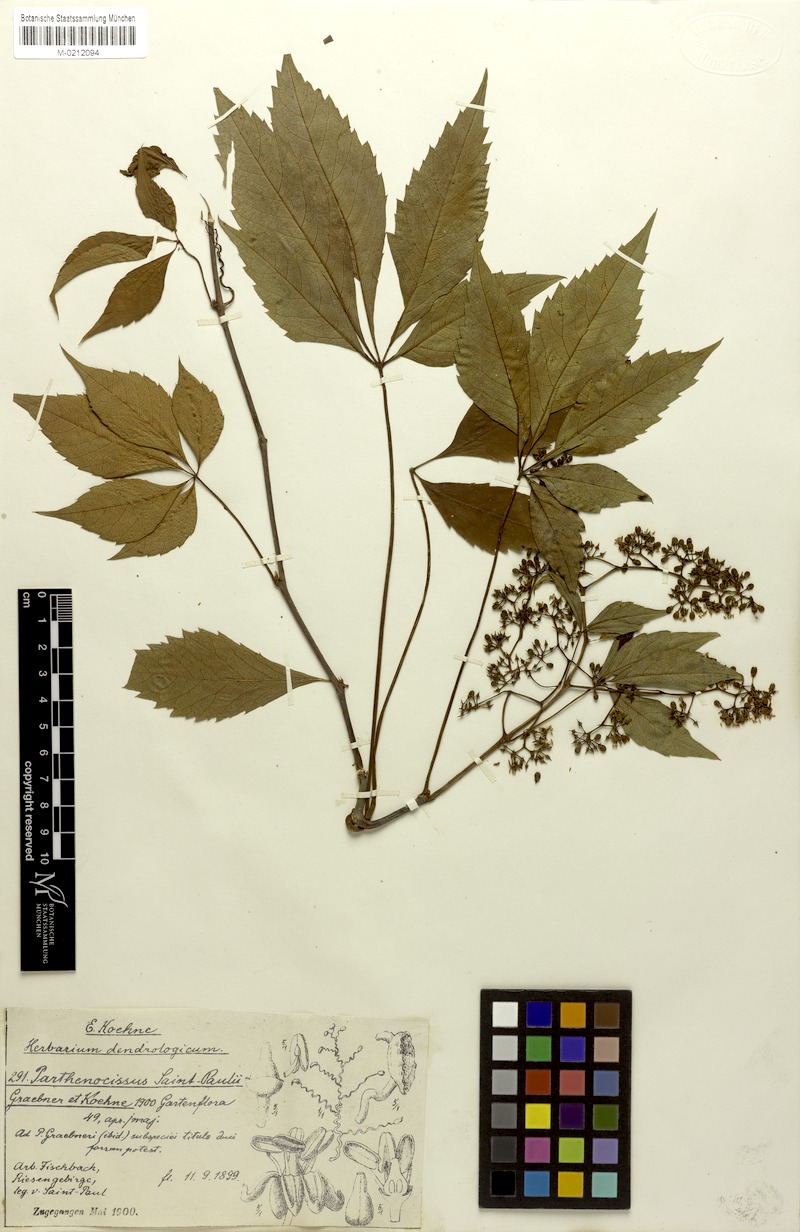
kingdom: Plantae
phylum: Tracheophyta
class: Magnoliopsida
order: Vitales
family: Vitaceae
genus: Parthenocissus
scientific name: Parthenocissus inserta
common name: False virginia-creeper
